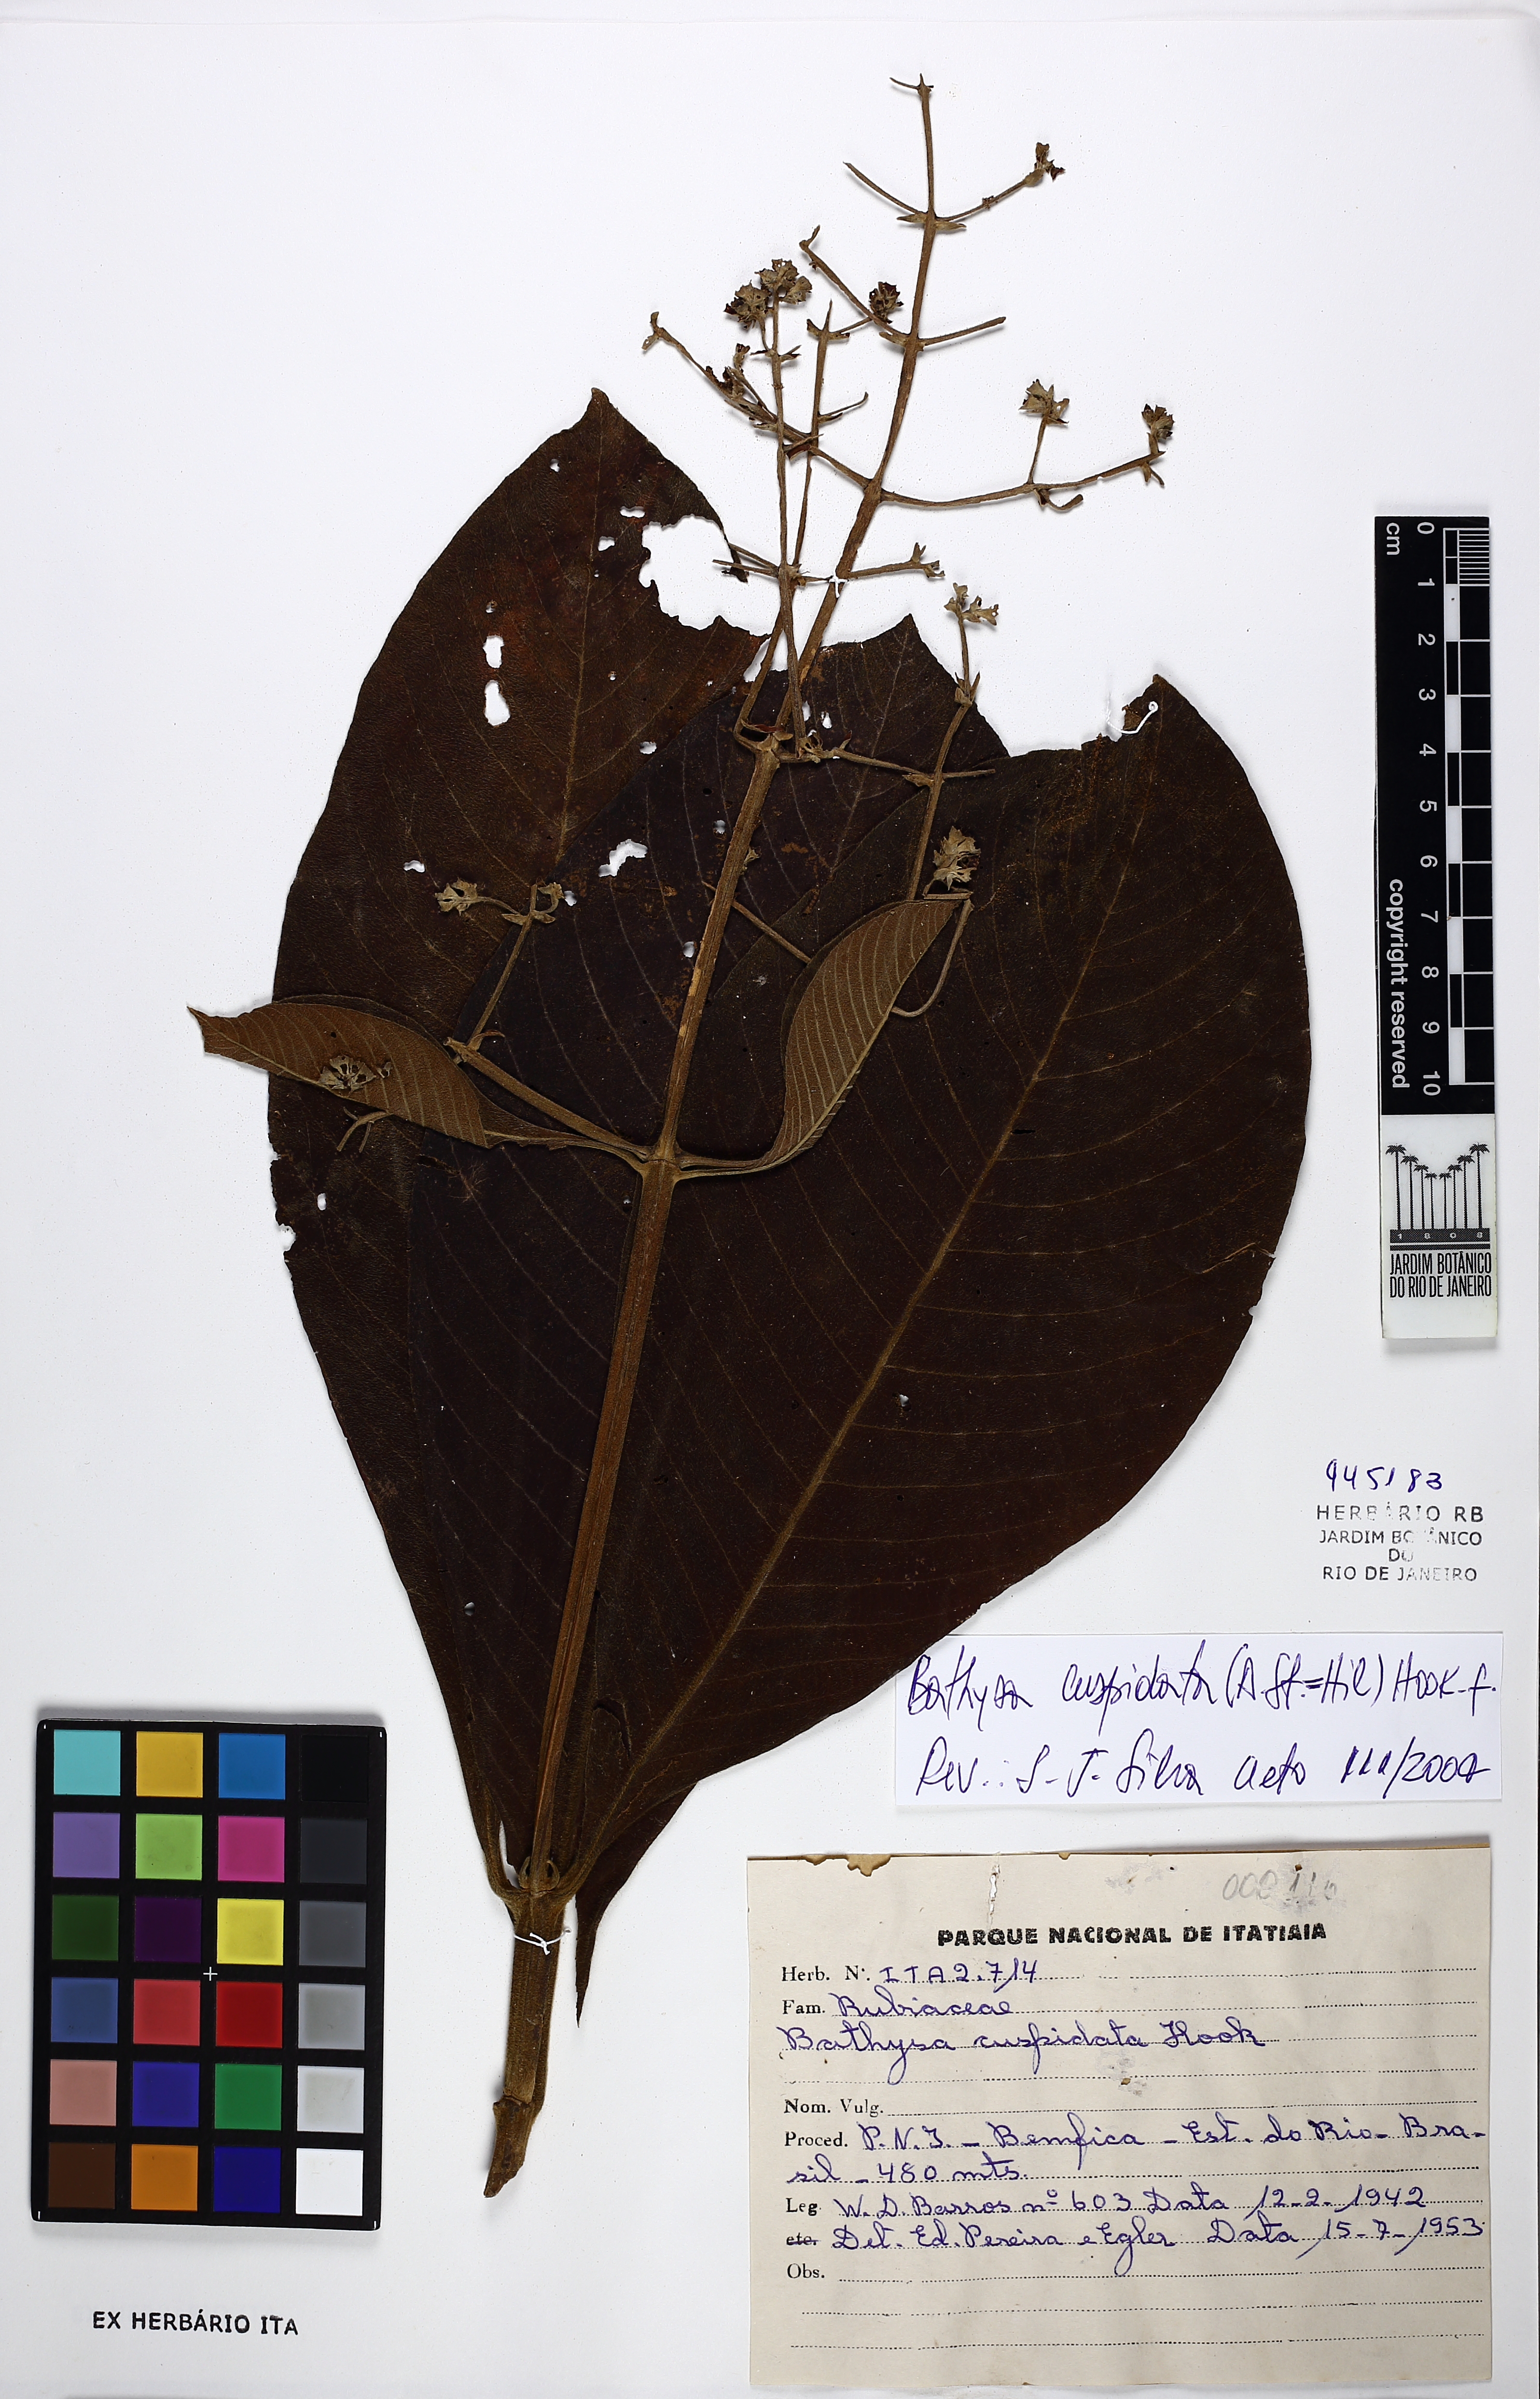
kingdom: Plantae
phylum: Tracheophyta
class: Magnoliopsida
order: Gentianales
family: Rubiaceae
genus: Schizocalyx
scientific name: Schizocalyx cuspidatus
